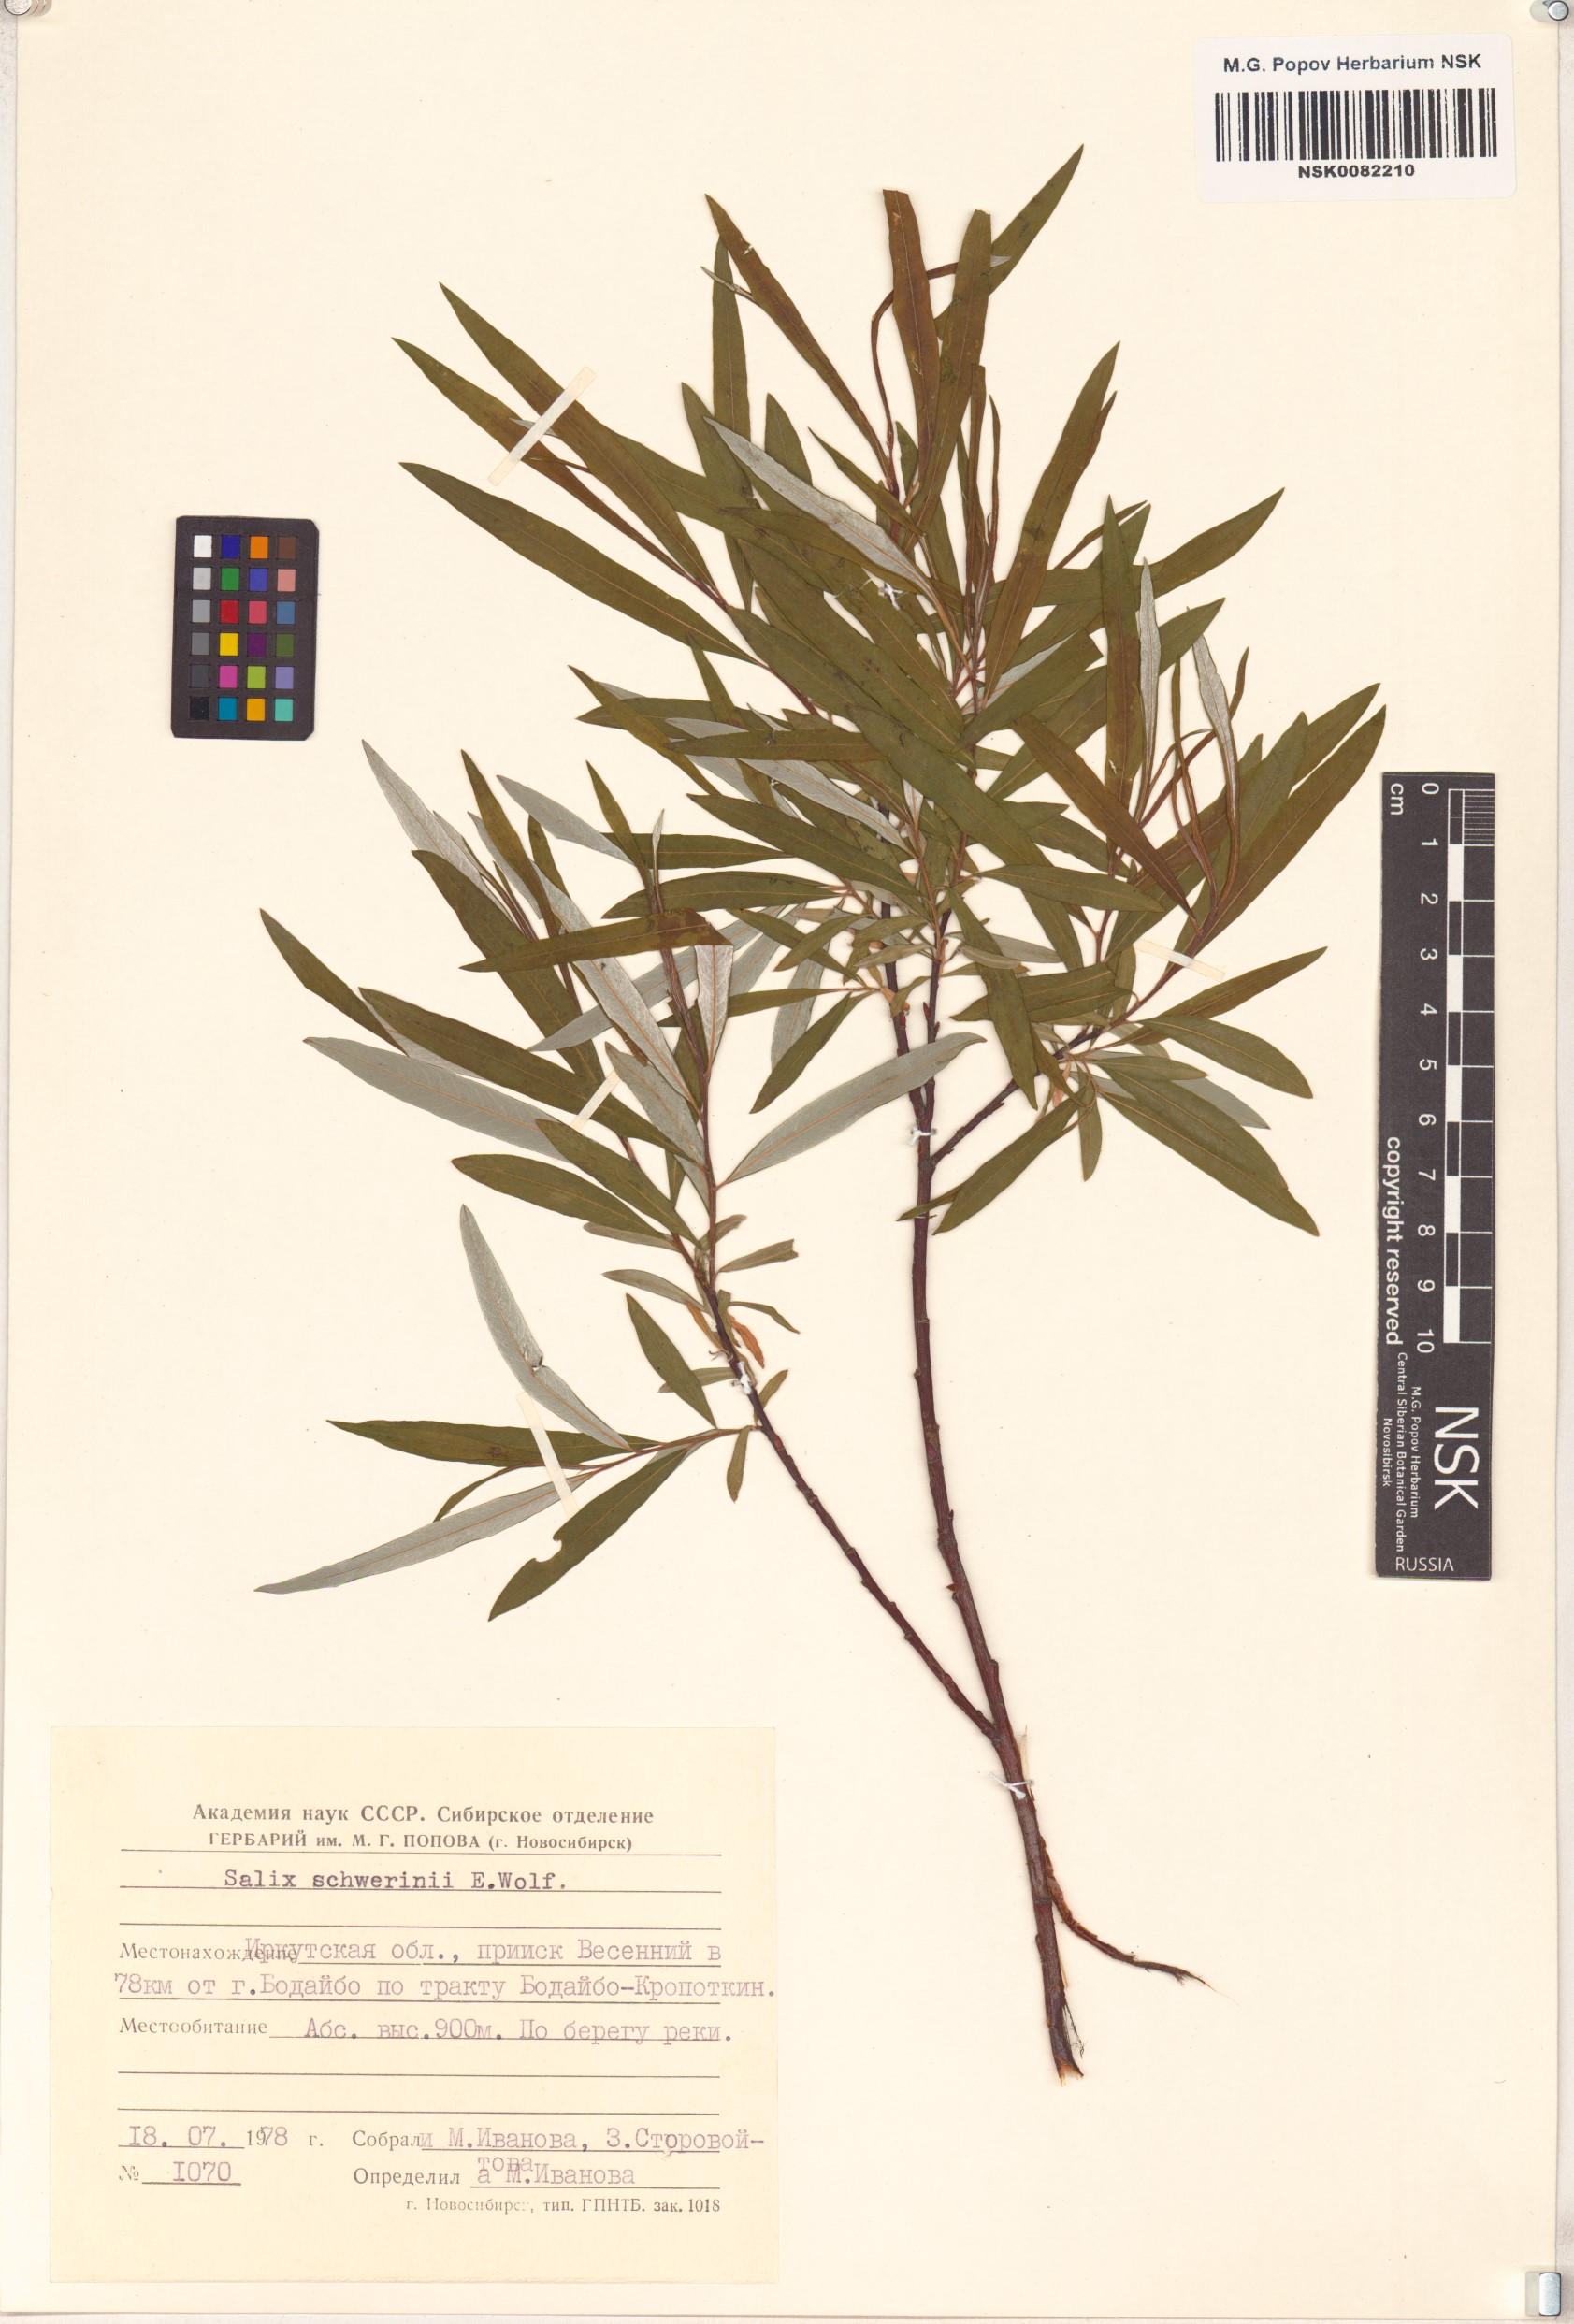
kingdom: Plantae
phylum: Tracheophyta
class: Magnoliopsida
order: Malpighiales
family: Salicaceae
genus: Salix
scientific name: Salix schwerinii
